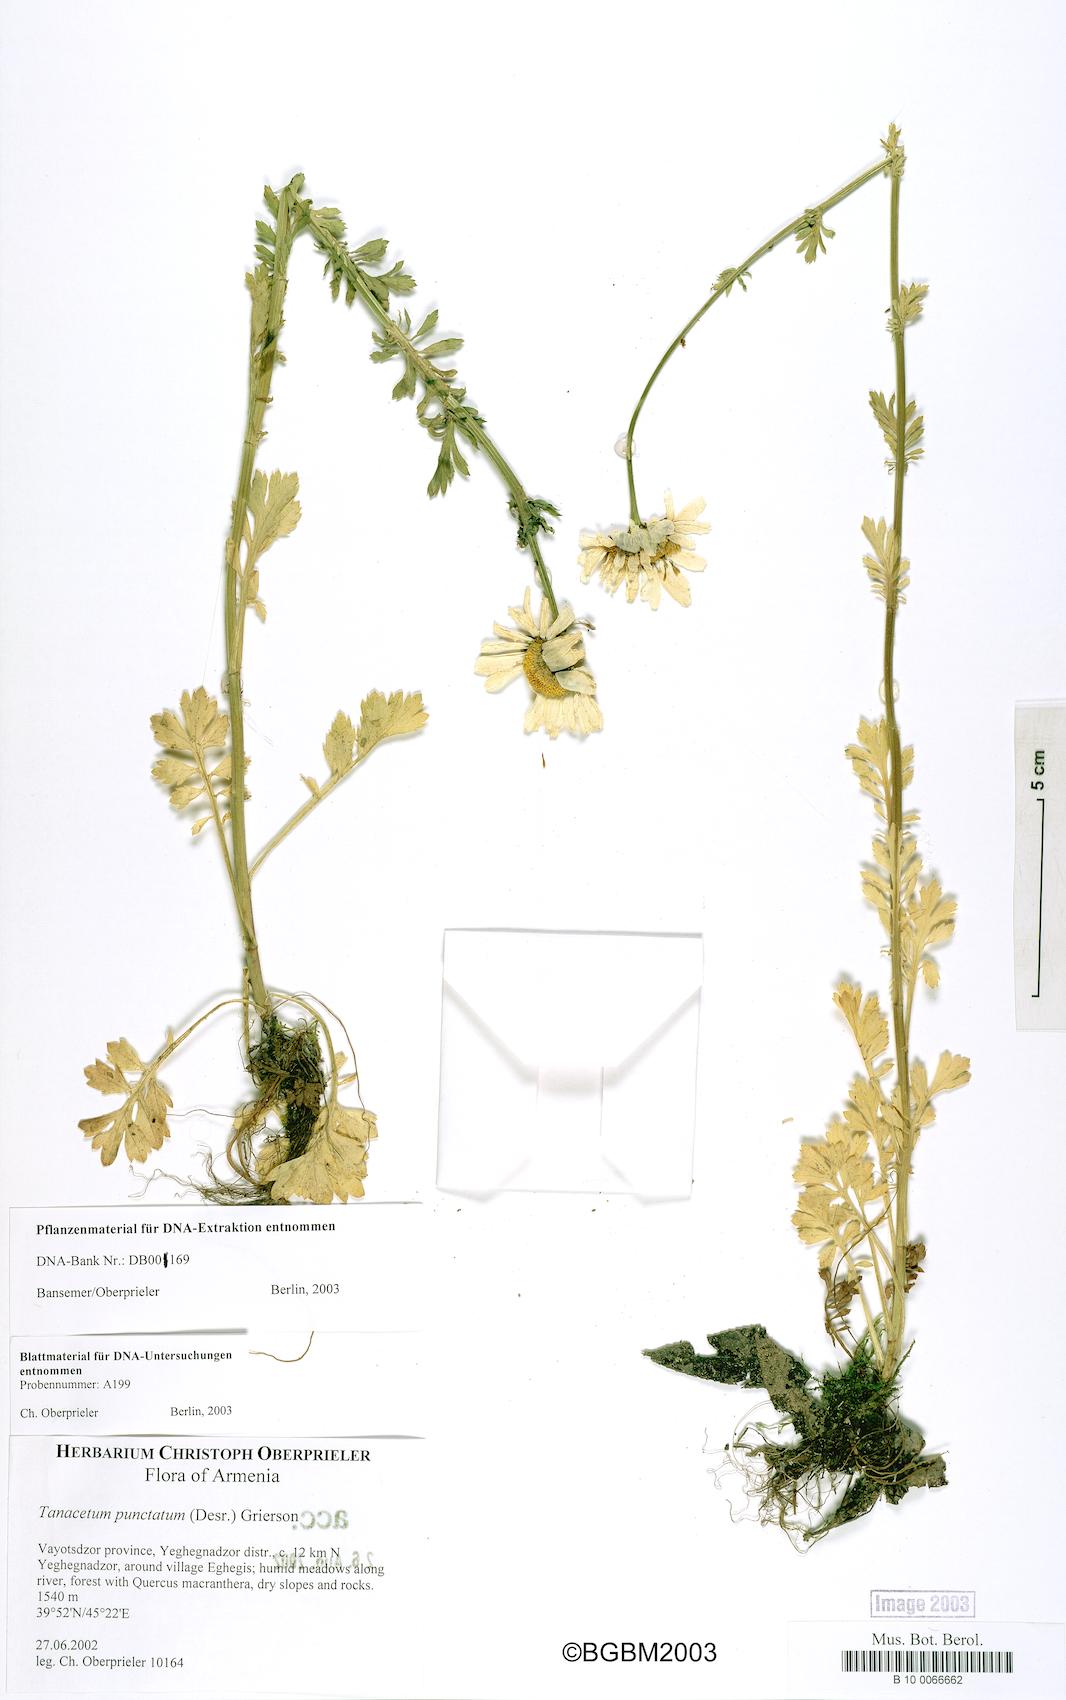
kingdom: Plantae
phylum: Tracheophyta
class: Magnoliopsida
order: Asterales
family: Asteraceae
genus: Tanacetum
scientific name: Tanacetum punctatum
